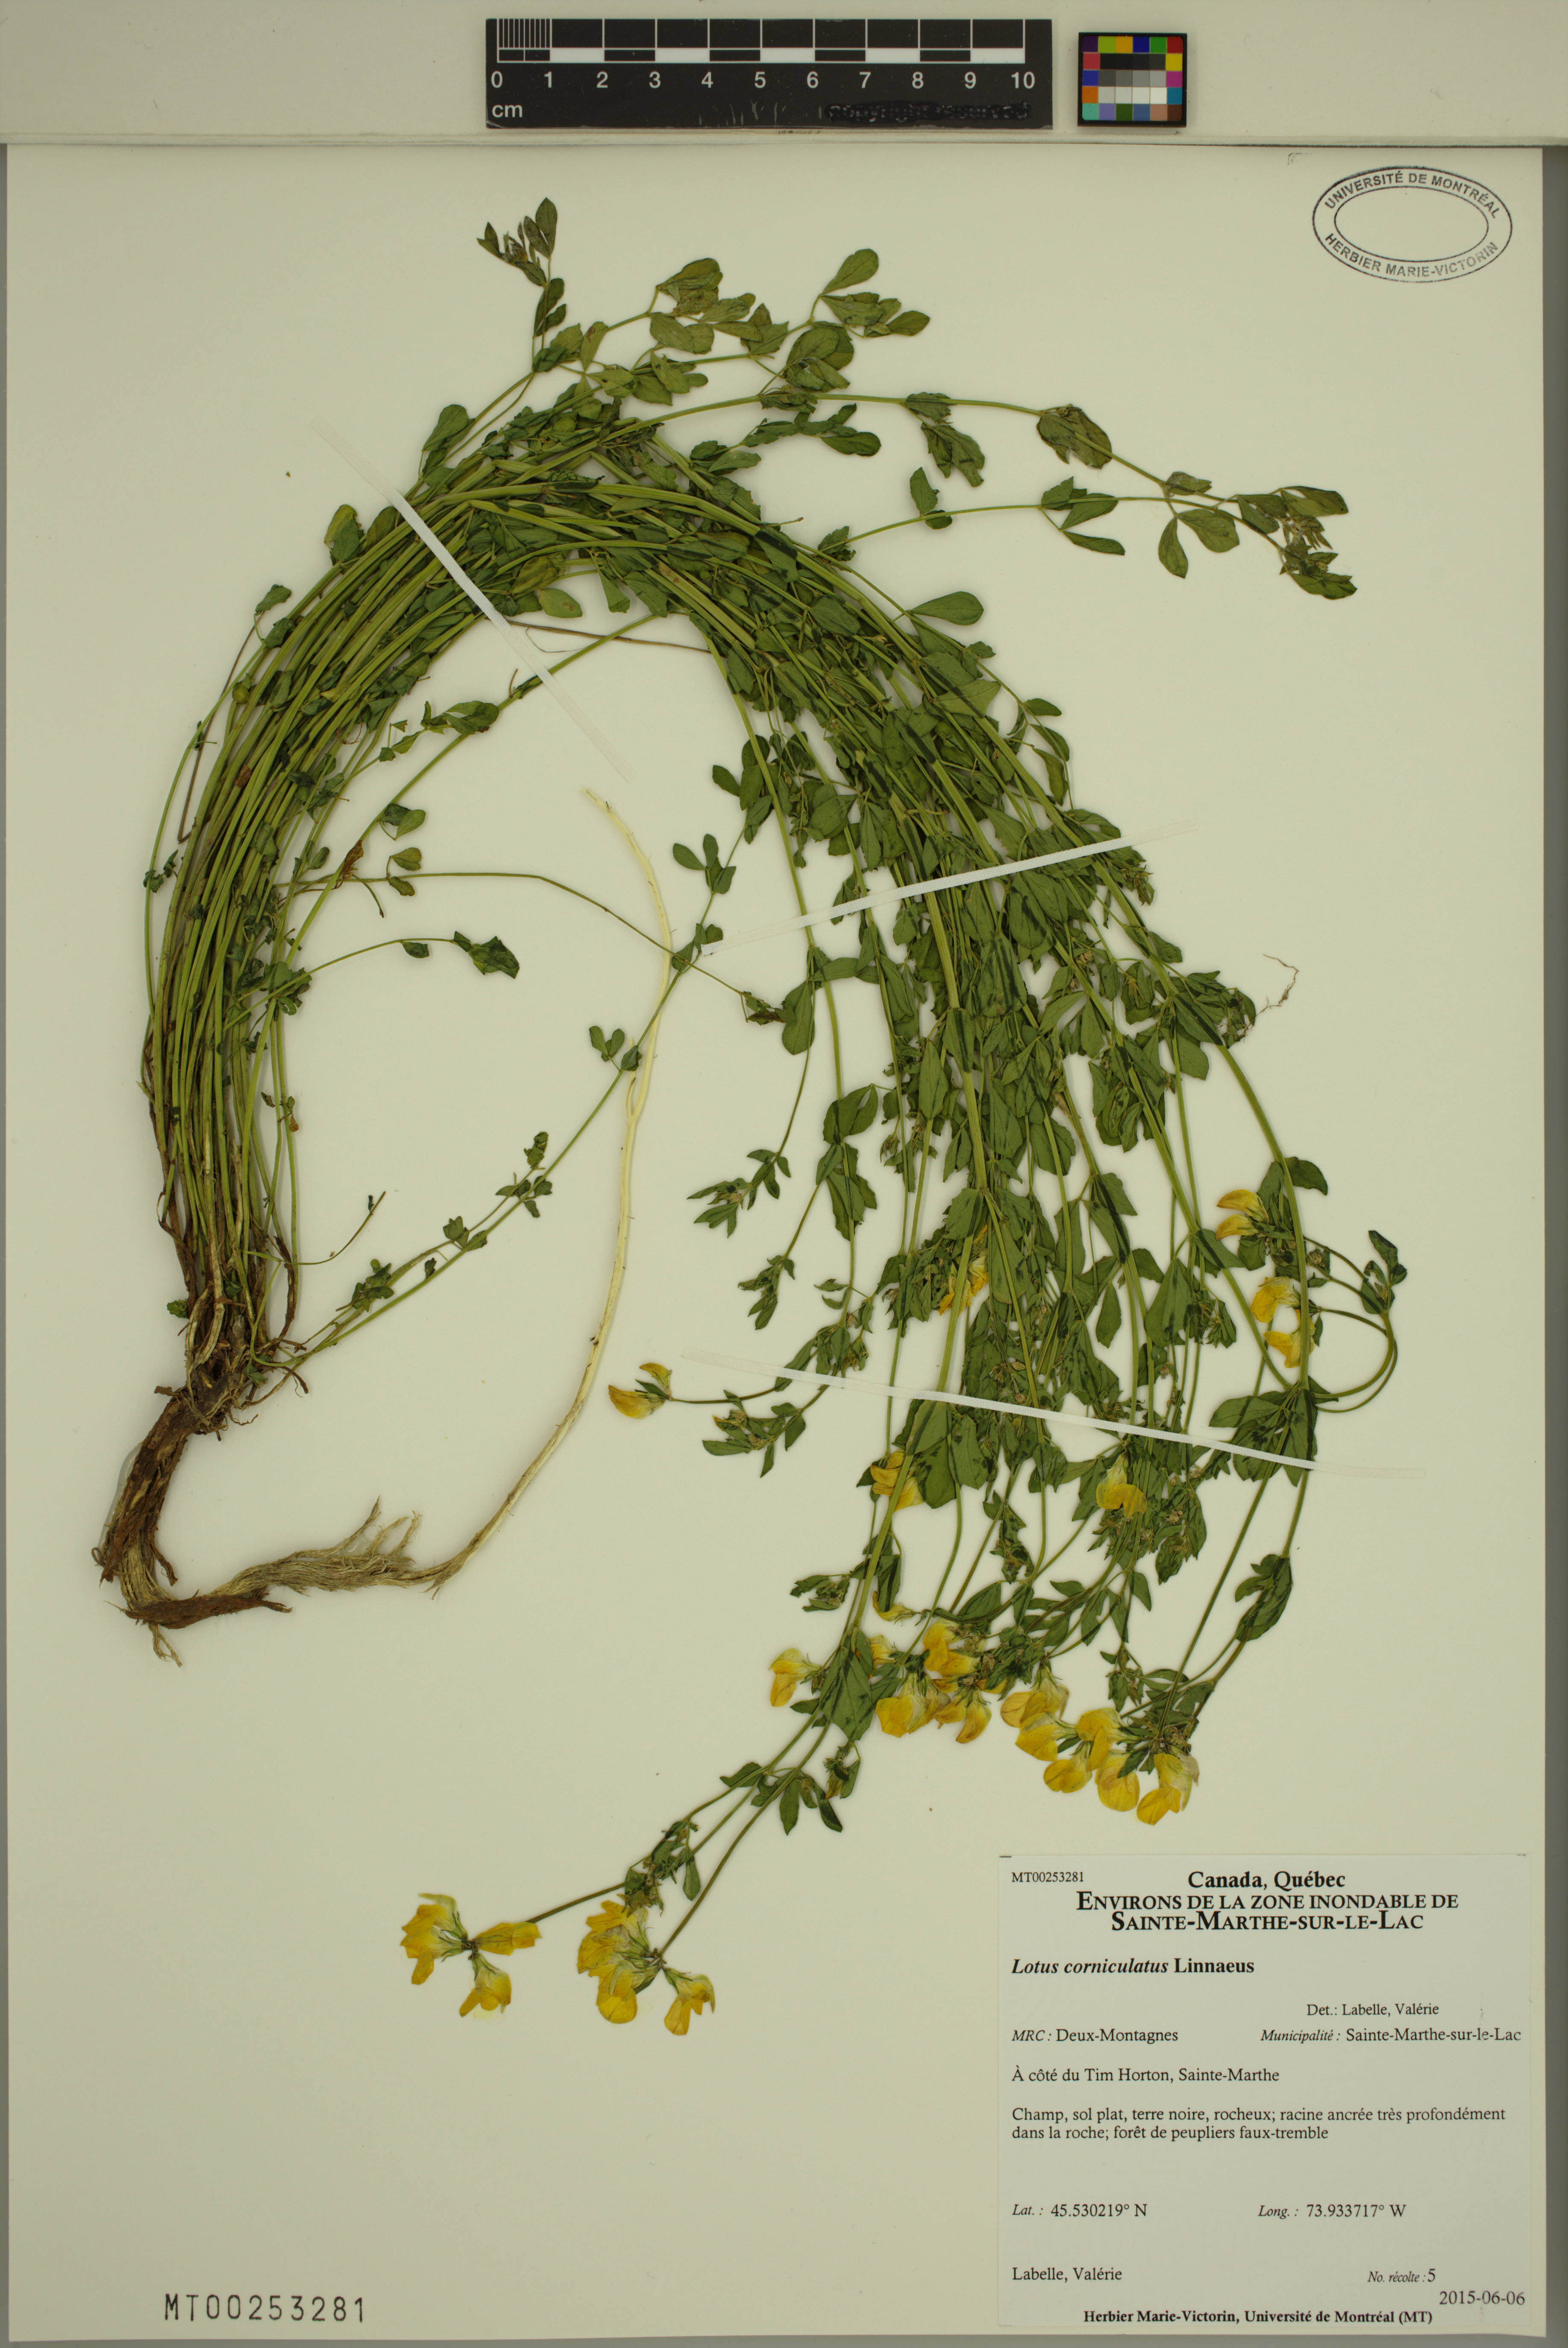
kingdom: Plantae
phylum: Tracheophyta
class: Magnoliopsida
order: Fabales
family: Fabaceae
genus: Lotus
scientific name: Lotus corniculatus
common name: Common bird's-foot-trefoil
